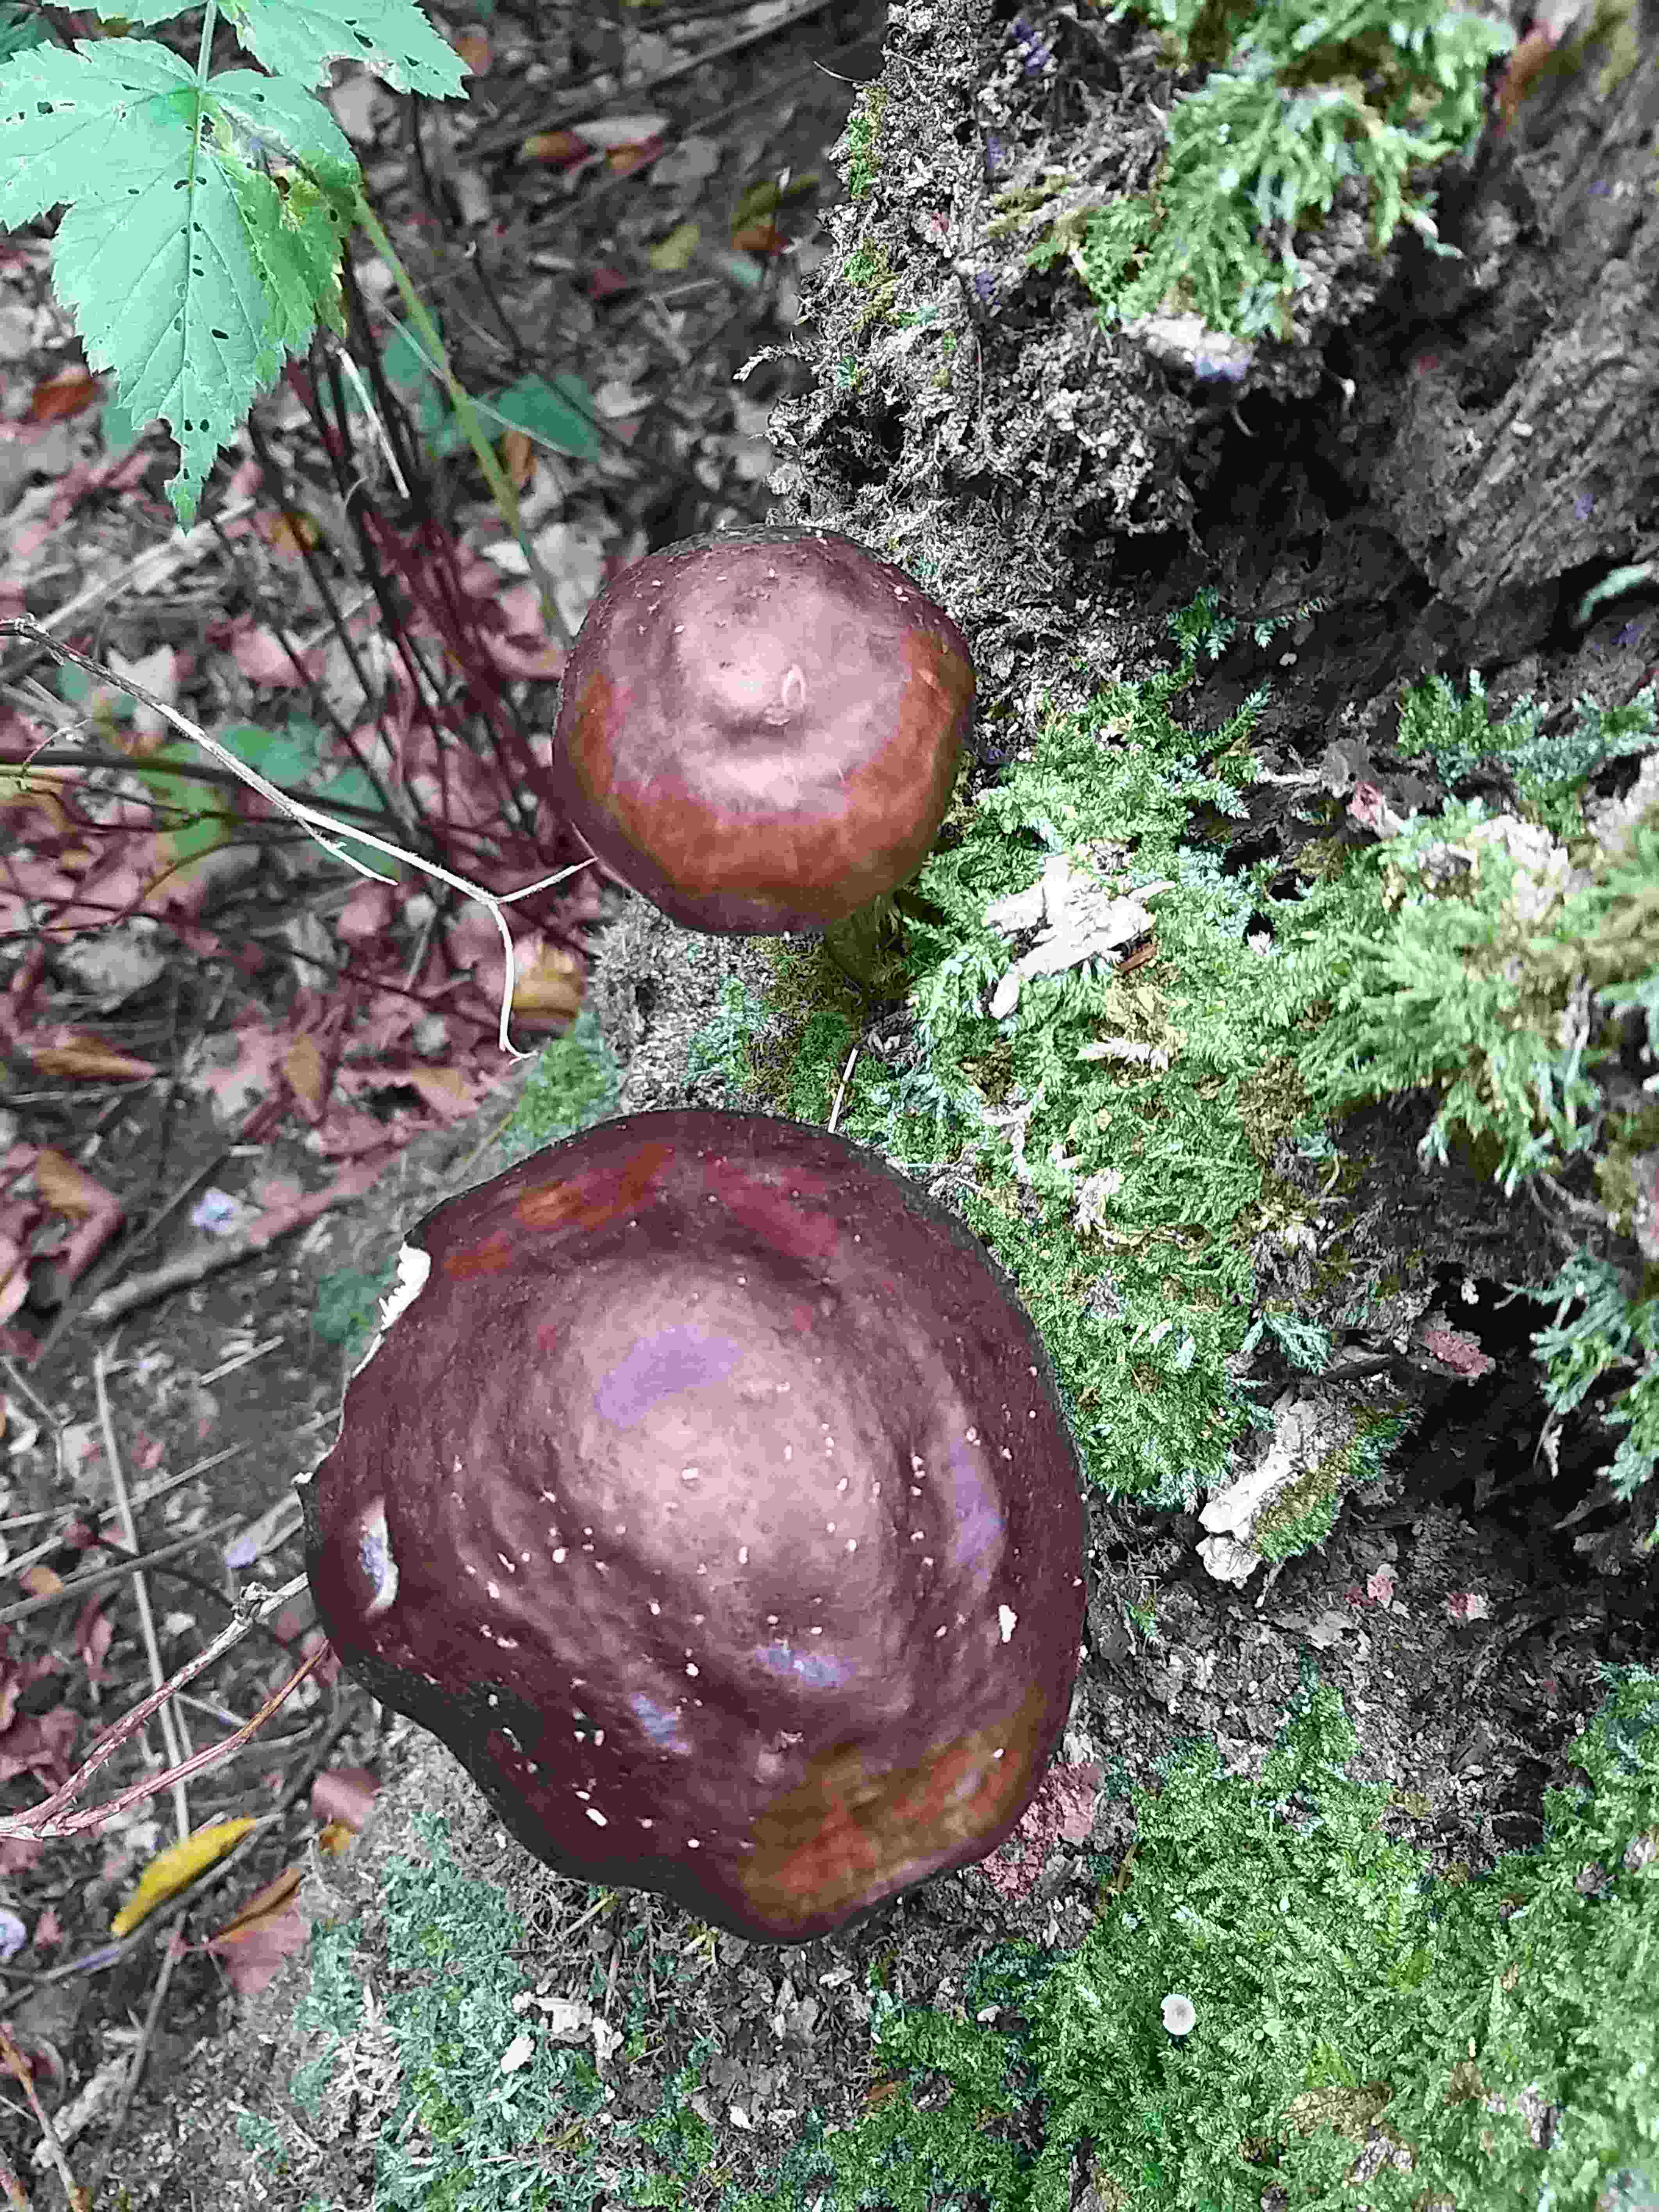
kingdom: Fungi
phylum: Basidiomycota
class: Agaricomycetes
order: Agaricales
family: Pluteaceae
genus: Pluteus
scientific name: Pluteus cervinus
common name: sodfarvet skærmhat
